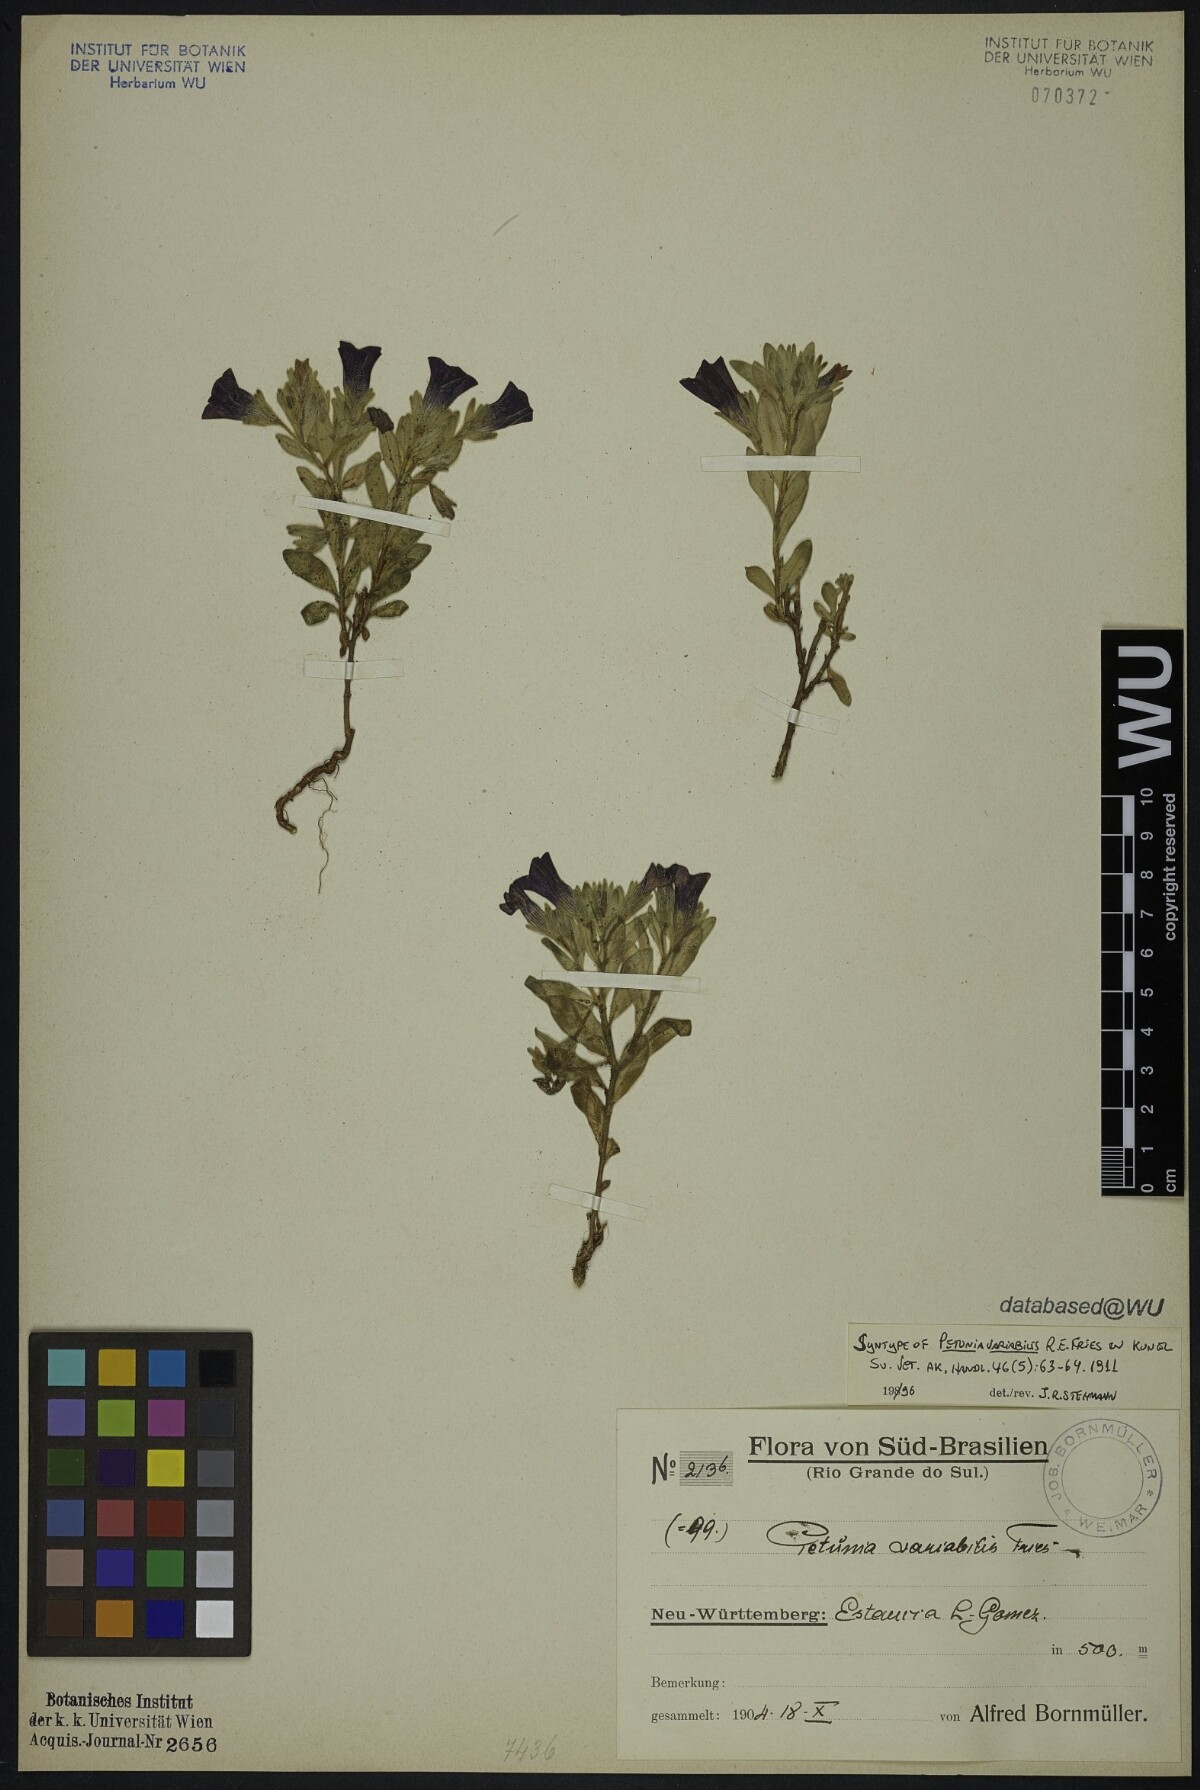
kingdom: Plantae
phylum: Tracheophyta
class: Magnoliopsida
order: Solanales
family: Solanaceae
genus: Calibrachoa
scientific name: Calibrachoa excellens
